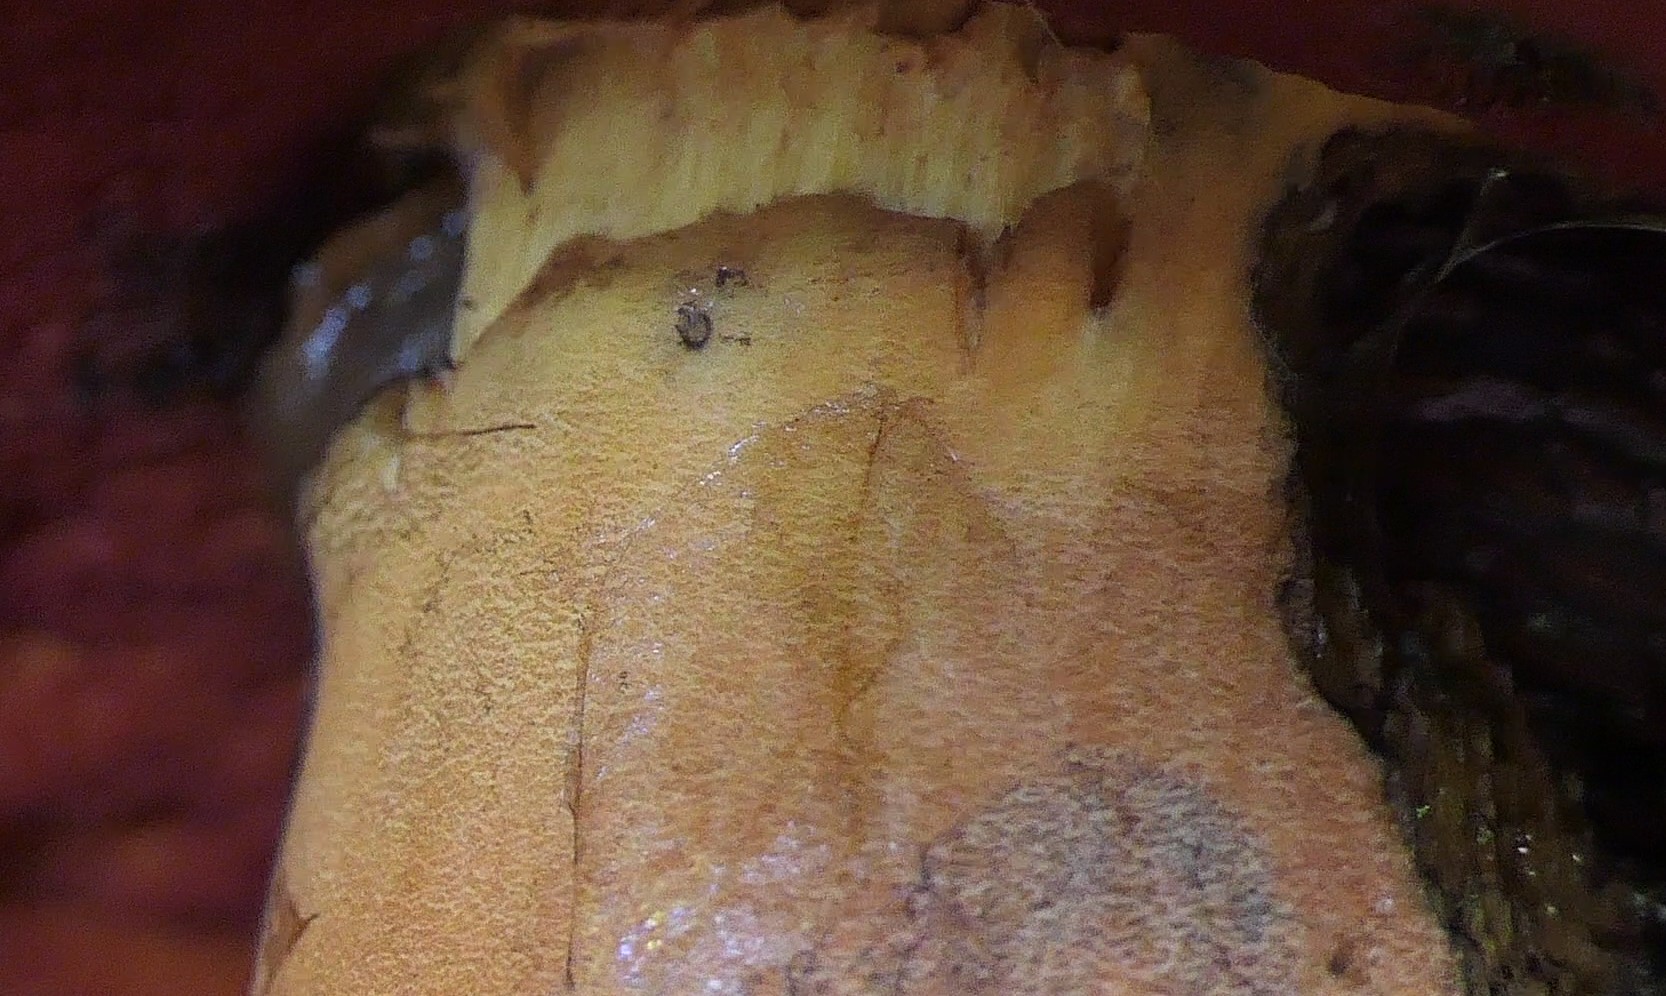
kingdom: Fungi
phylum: Basidiomycota
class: Agaricomycetes
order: Boletales
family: Boletaceae
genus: Neoboletus
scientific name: Neoboletus xanthopus
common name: finprikket indigorørhat
